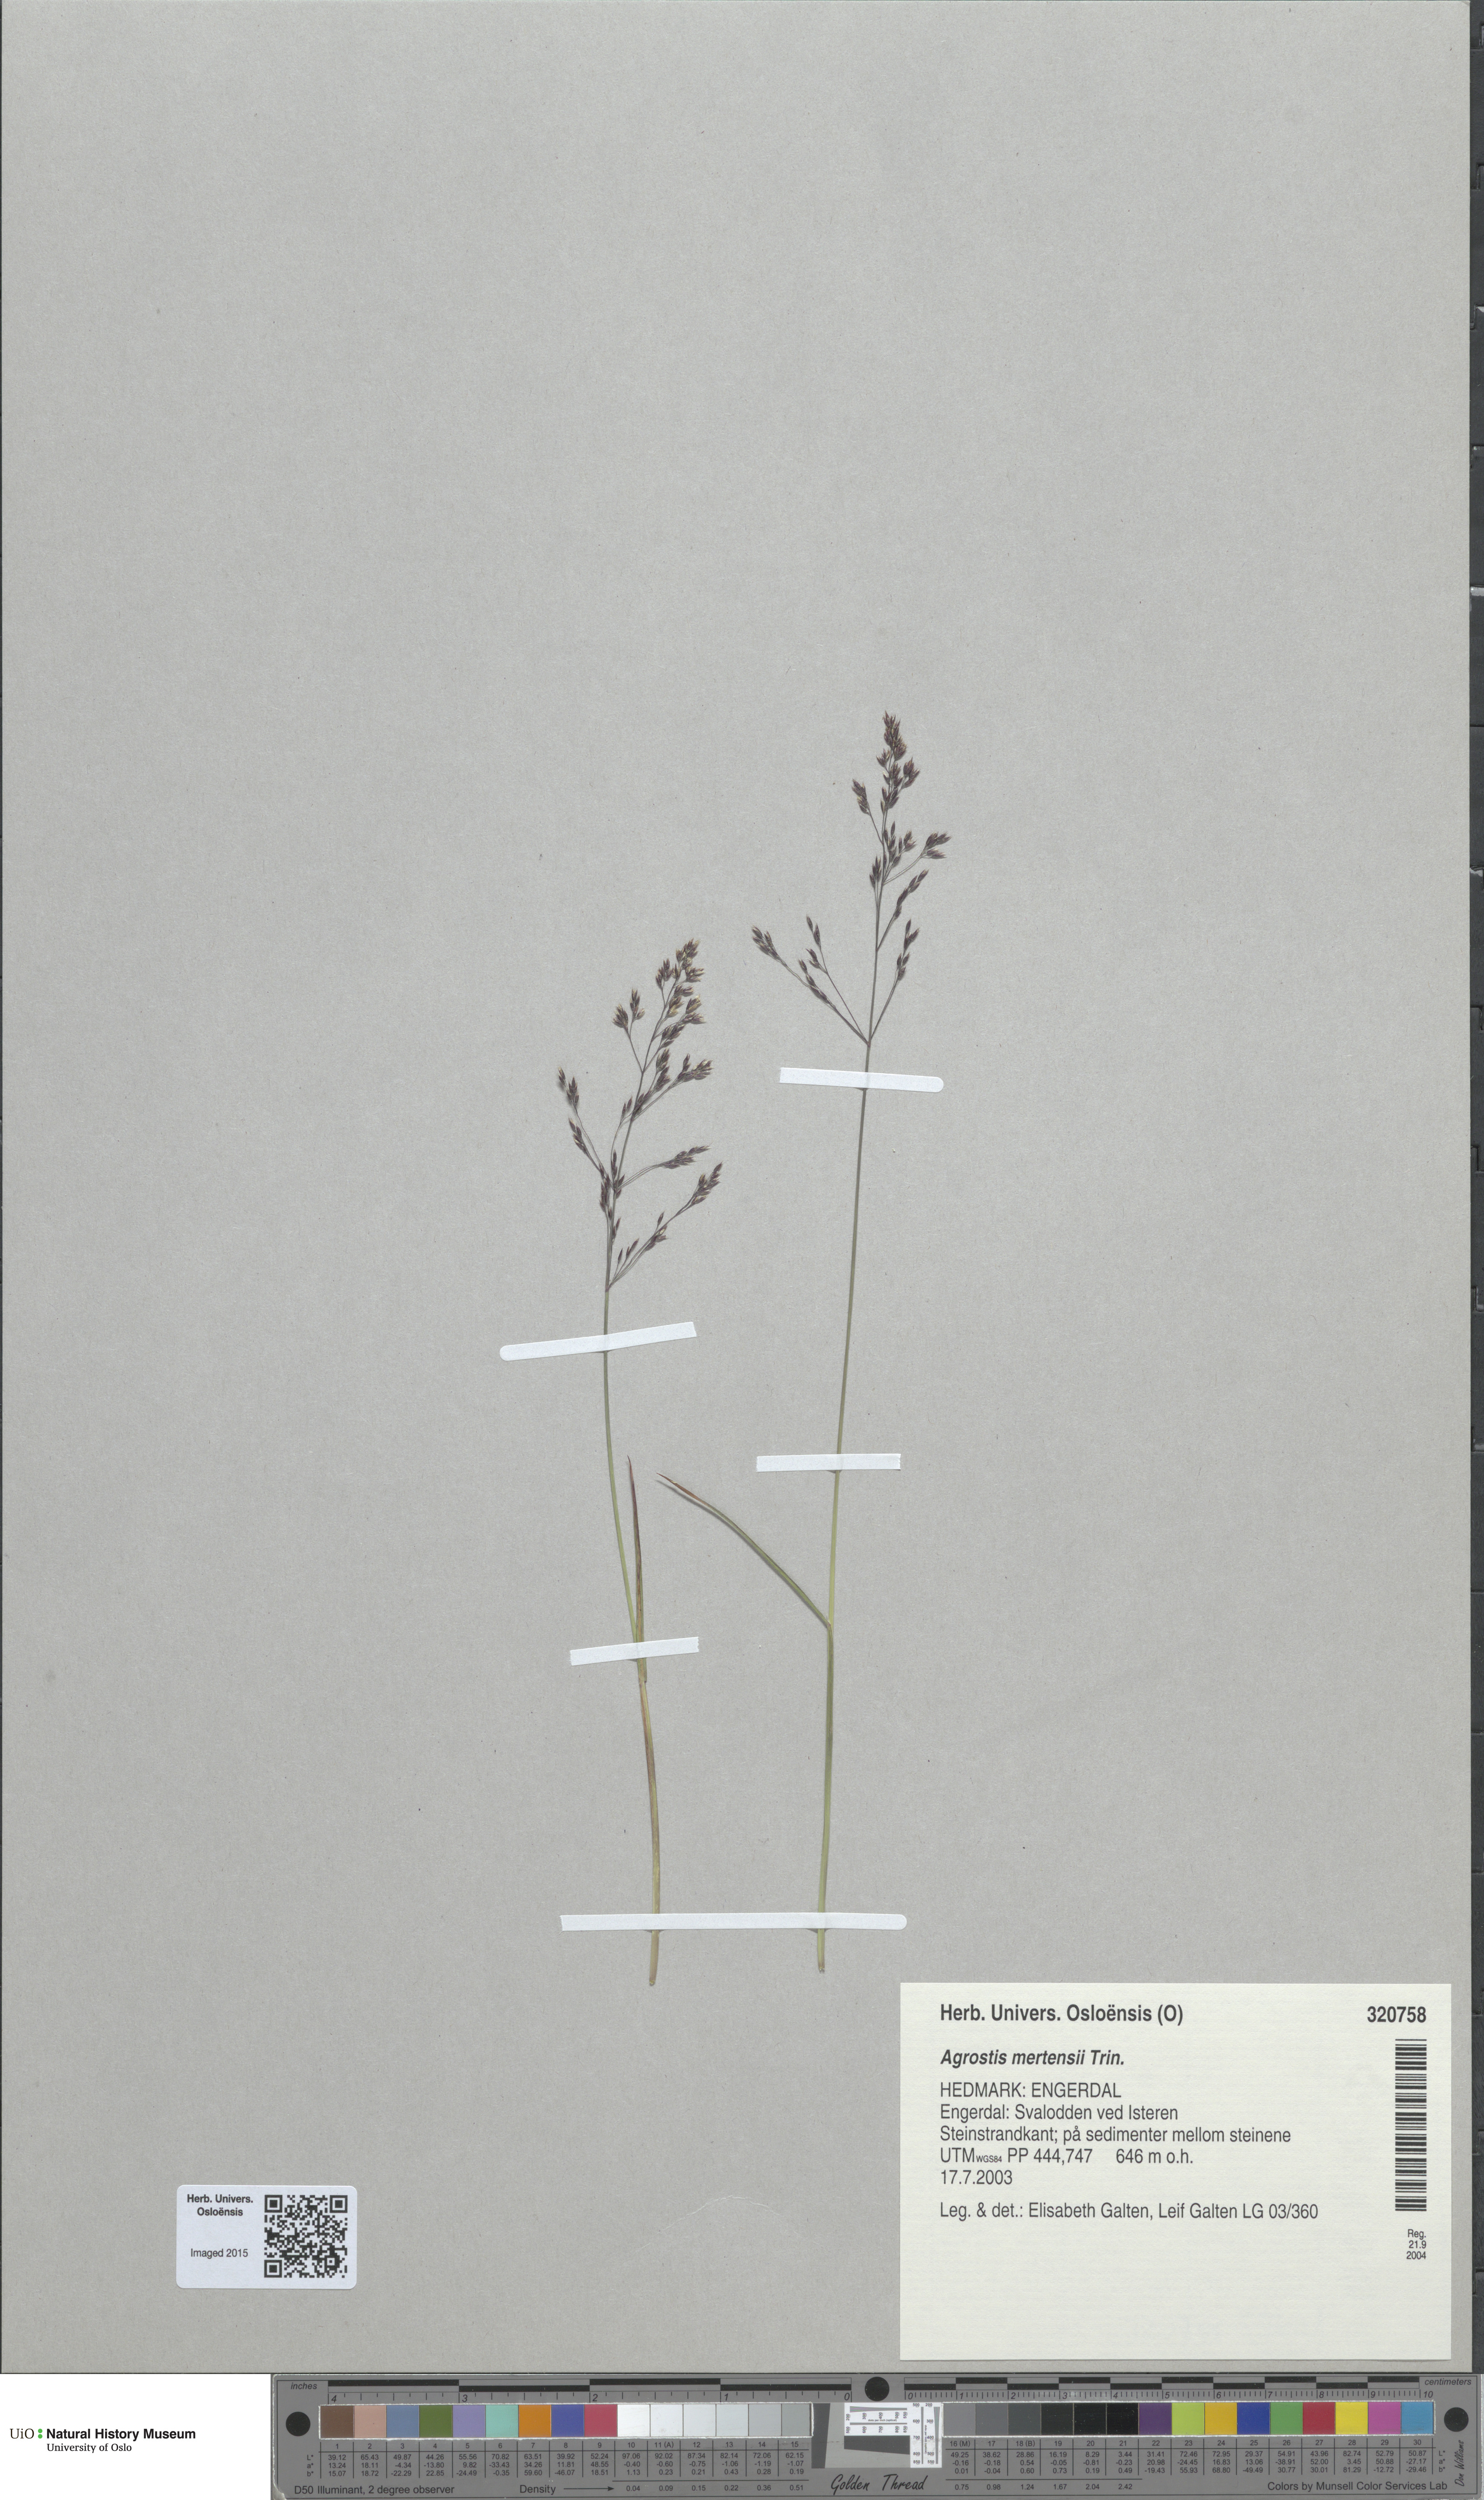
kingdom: Plantae
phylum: Tracheophyta
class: Liliopsida
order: Poales
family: Poaceae
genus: Agrostis
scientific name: Agrostis mertensii
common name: Northern bent
